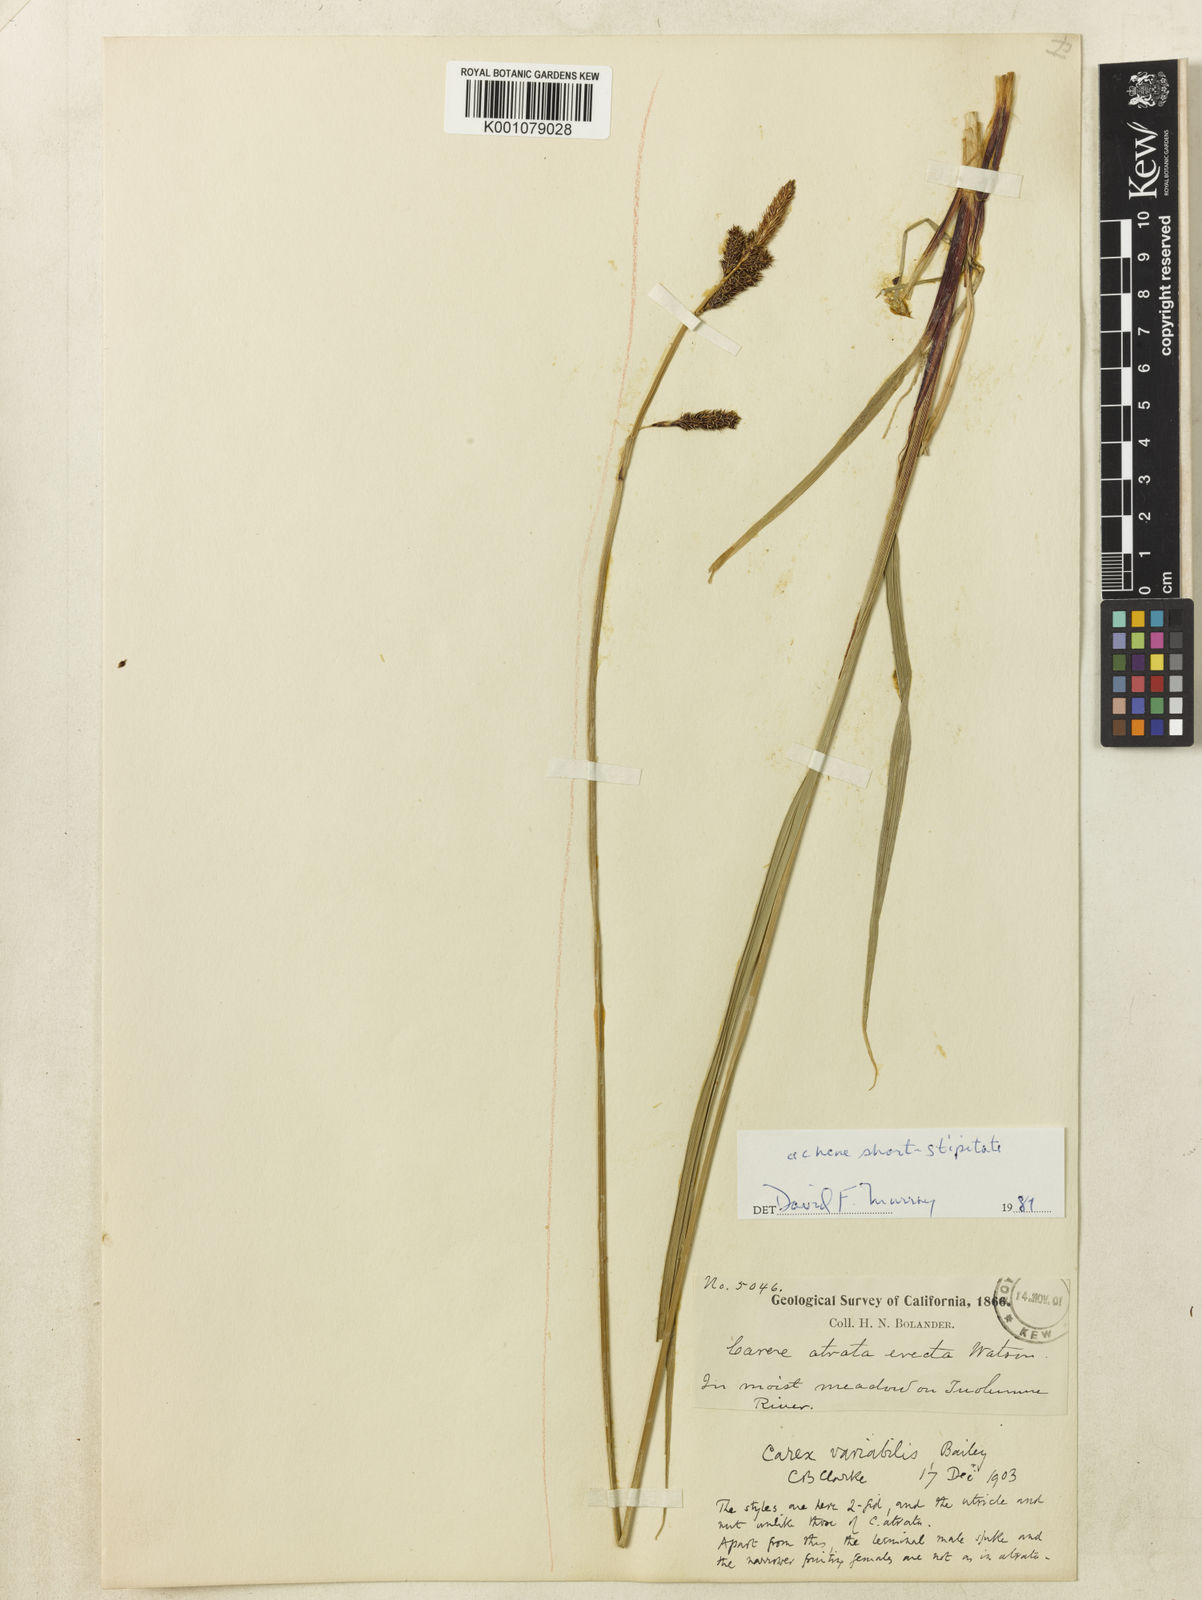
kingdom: Plantae
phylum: Tracheophyta
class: Liliopsida
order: Poales
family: Cyperaceae
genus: Carex
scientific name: Carex
